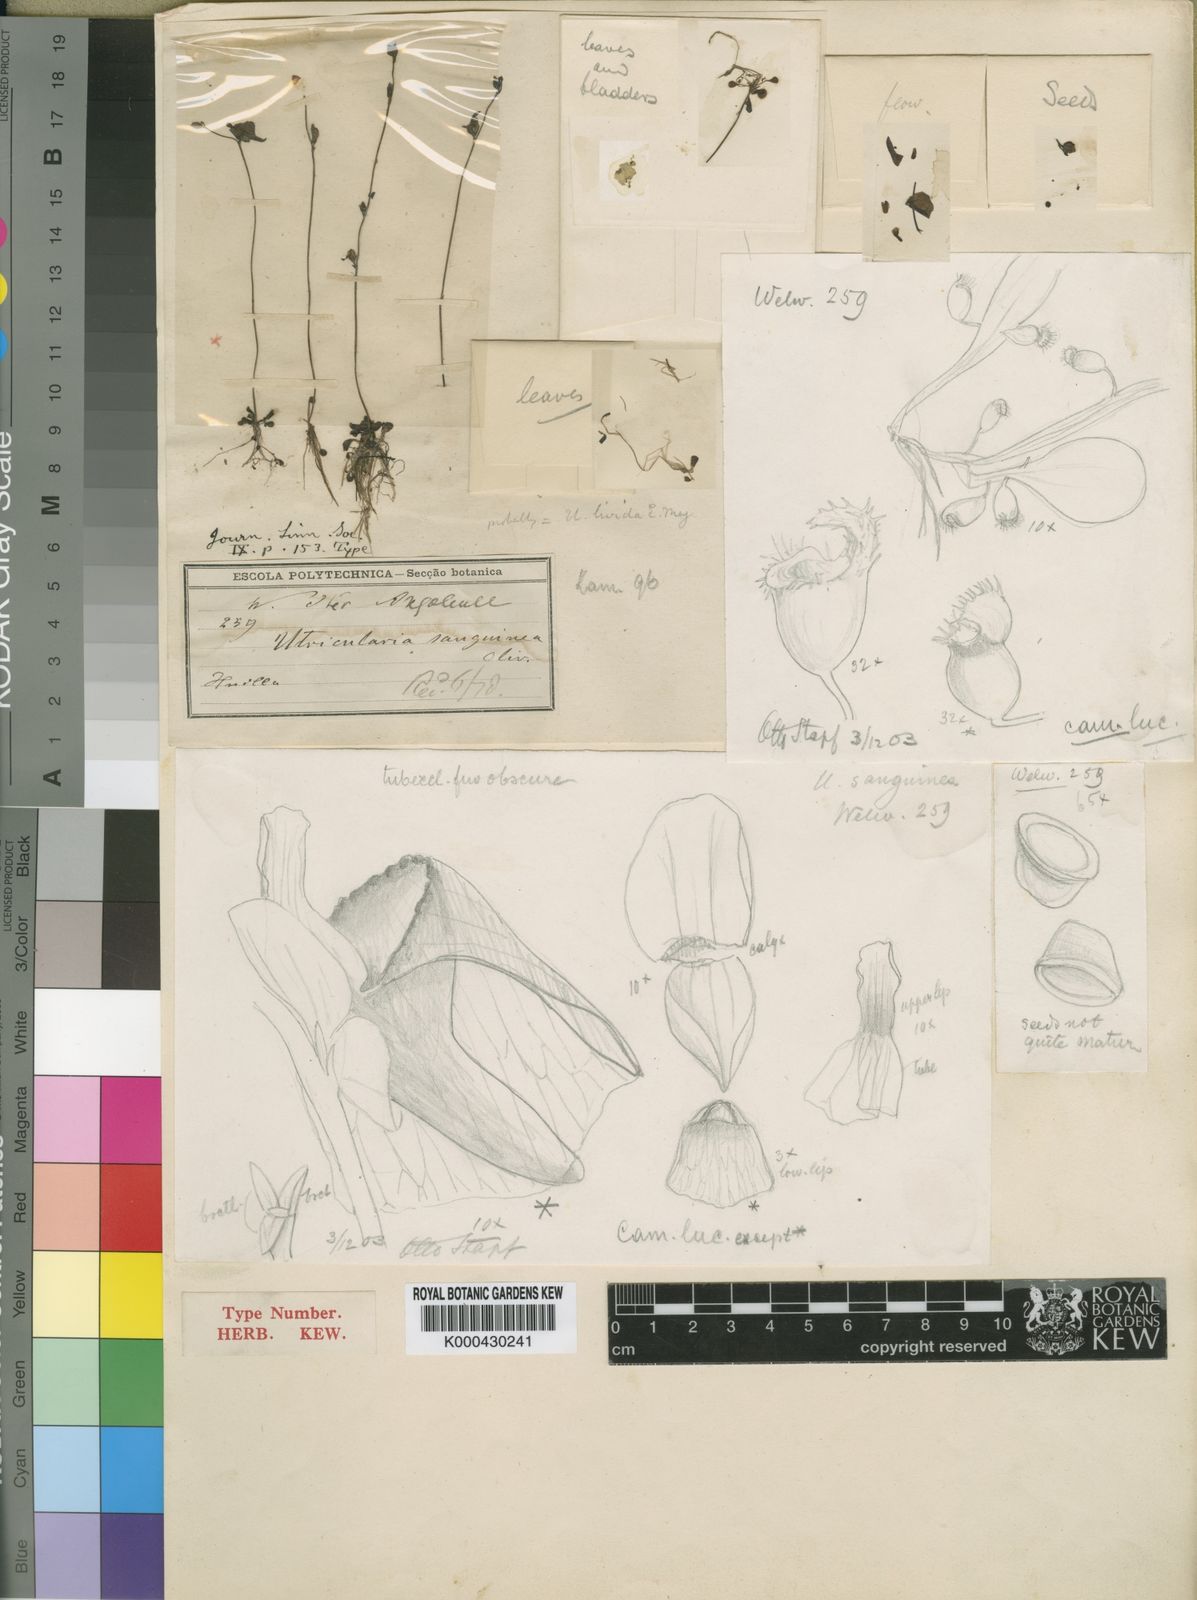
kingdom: Plantae
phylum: Tracheophyta
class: Magnoliopsida
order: Lamiales
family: Lentibulariaceae
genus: Utricularia
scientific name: Utricularia livida
